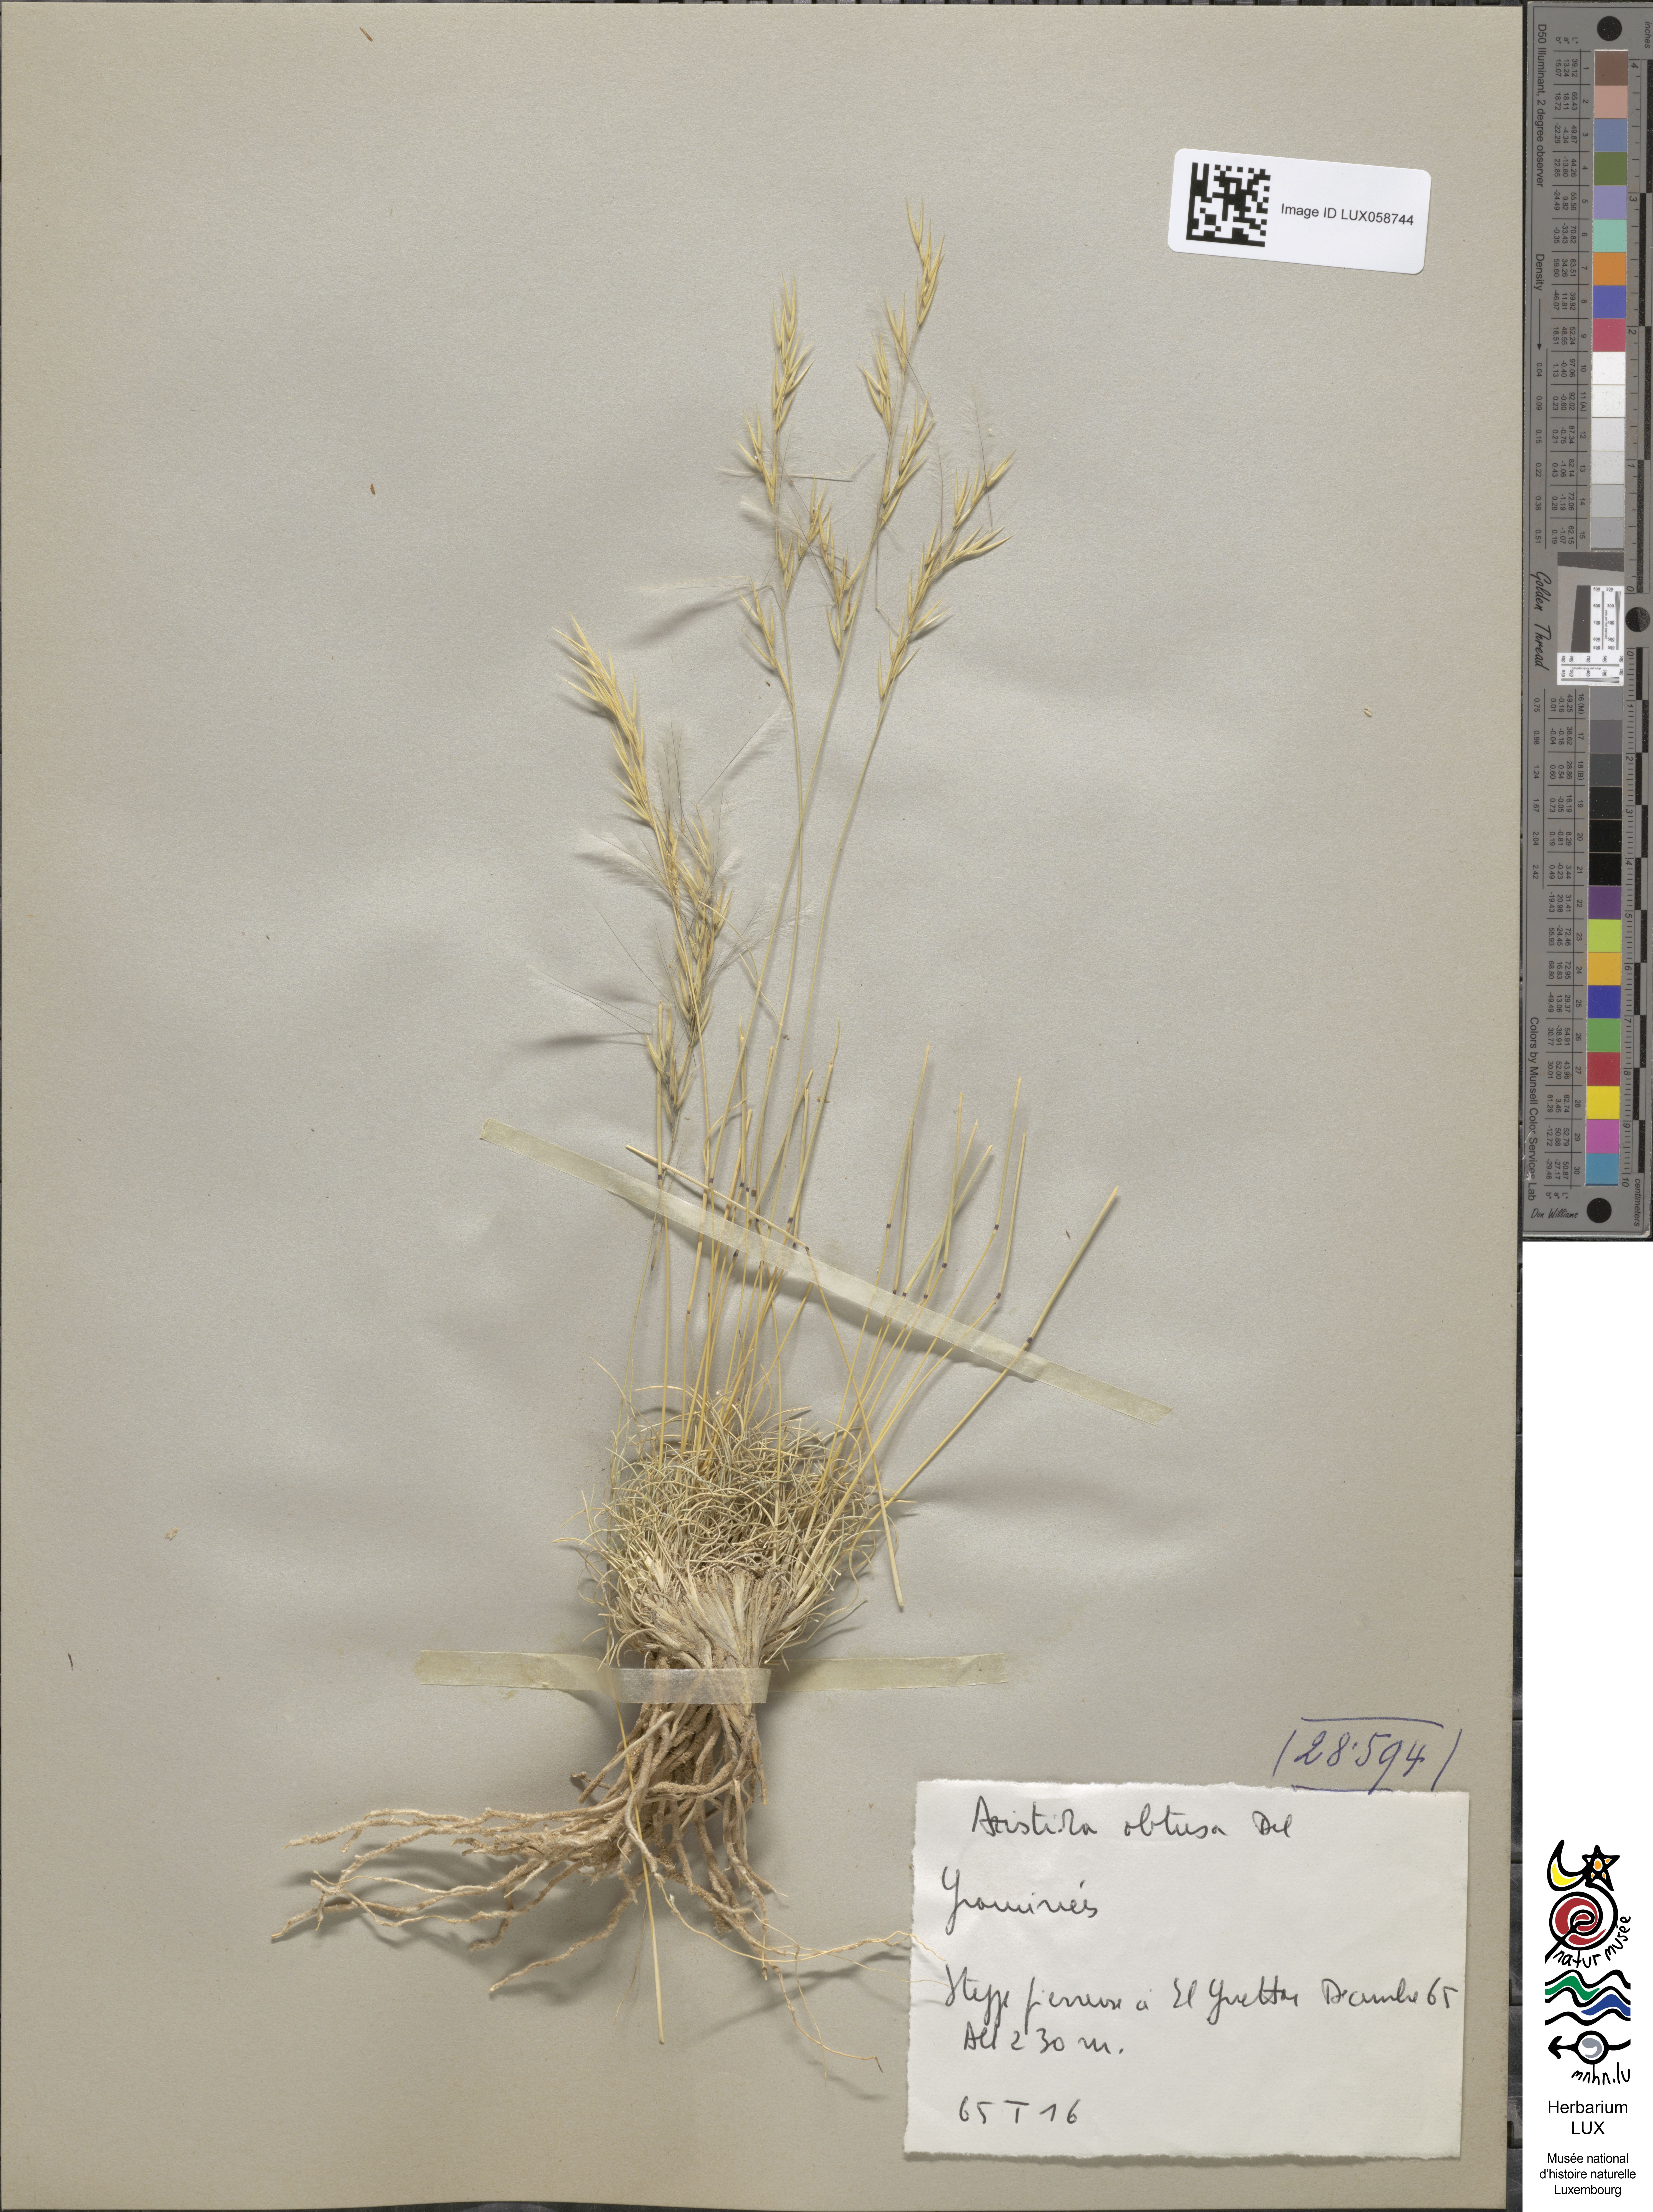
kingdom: Plantae
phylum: Tracheophyta
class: Liliopsida
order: Poales
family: Poaceae
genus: Stipagrostis
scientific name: Stipagrostis obtusa
